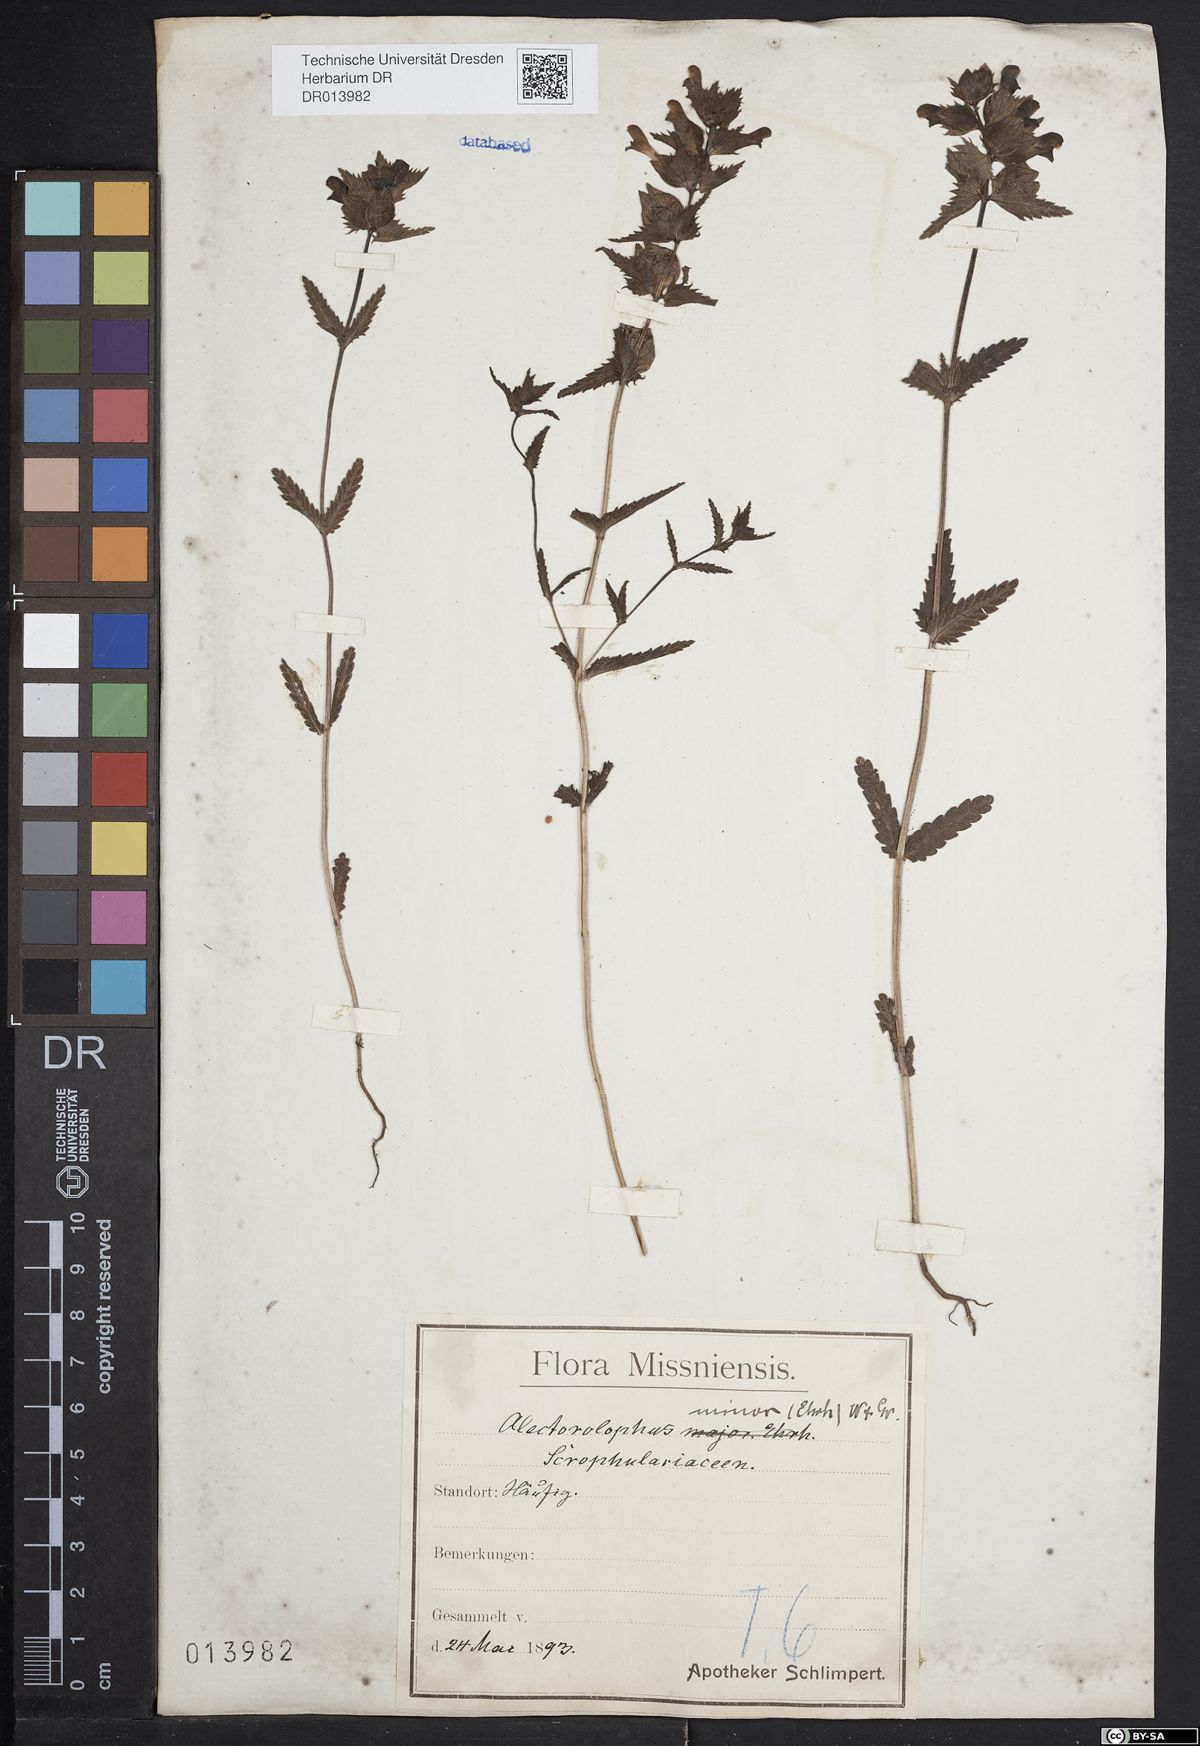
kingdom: Plantae
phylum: Tracheophyta
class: Magnoliopsida
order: Lamiales
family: Orobanchaceae
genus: Rhinanthus
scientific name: Rhinanthus minor
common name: Yellow-rattle
